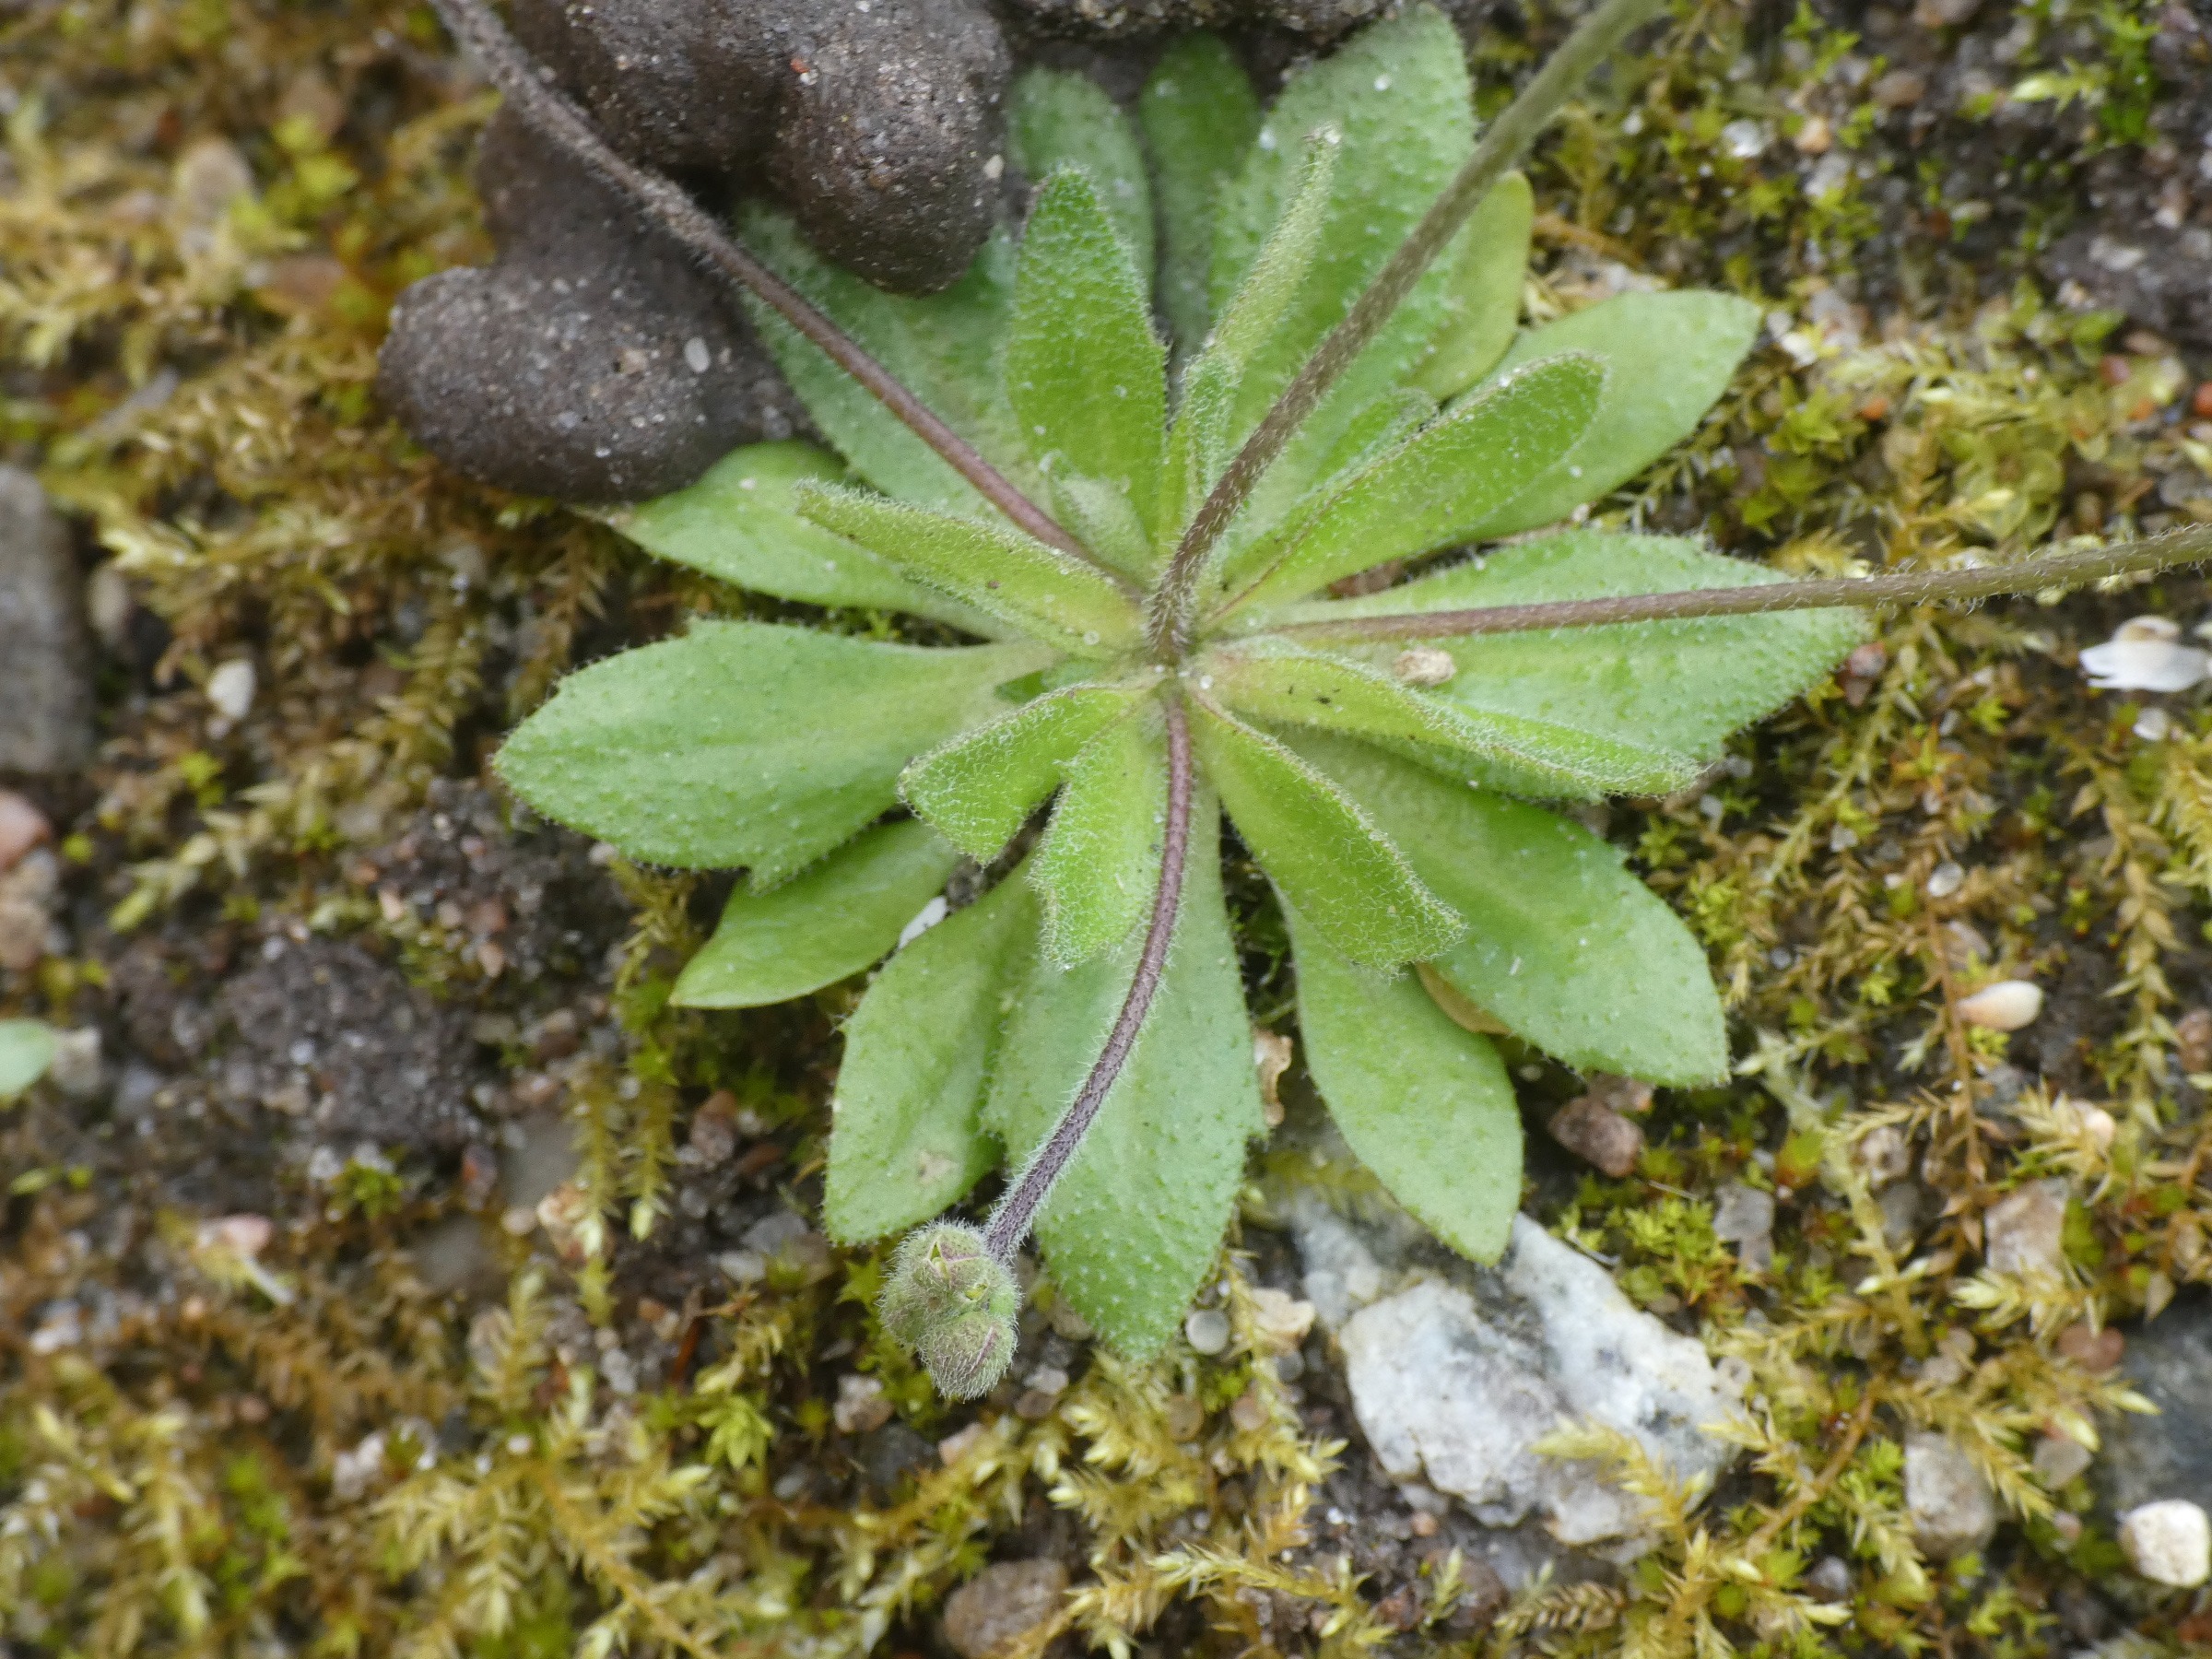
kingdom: Plantae
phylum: Tracheophyta
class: Magnoliopsida
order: Brassicales
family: Brassicaceae
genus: Draba
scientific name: Draba verna
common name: Vår-gæslingeblomst
